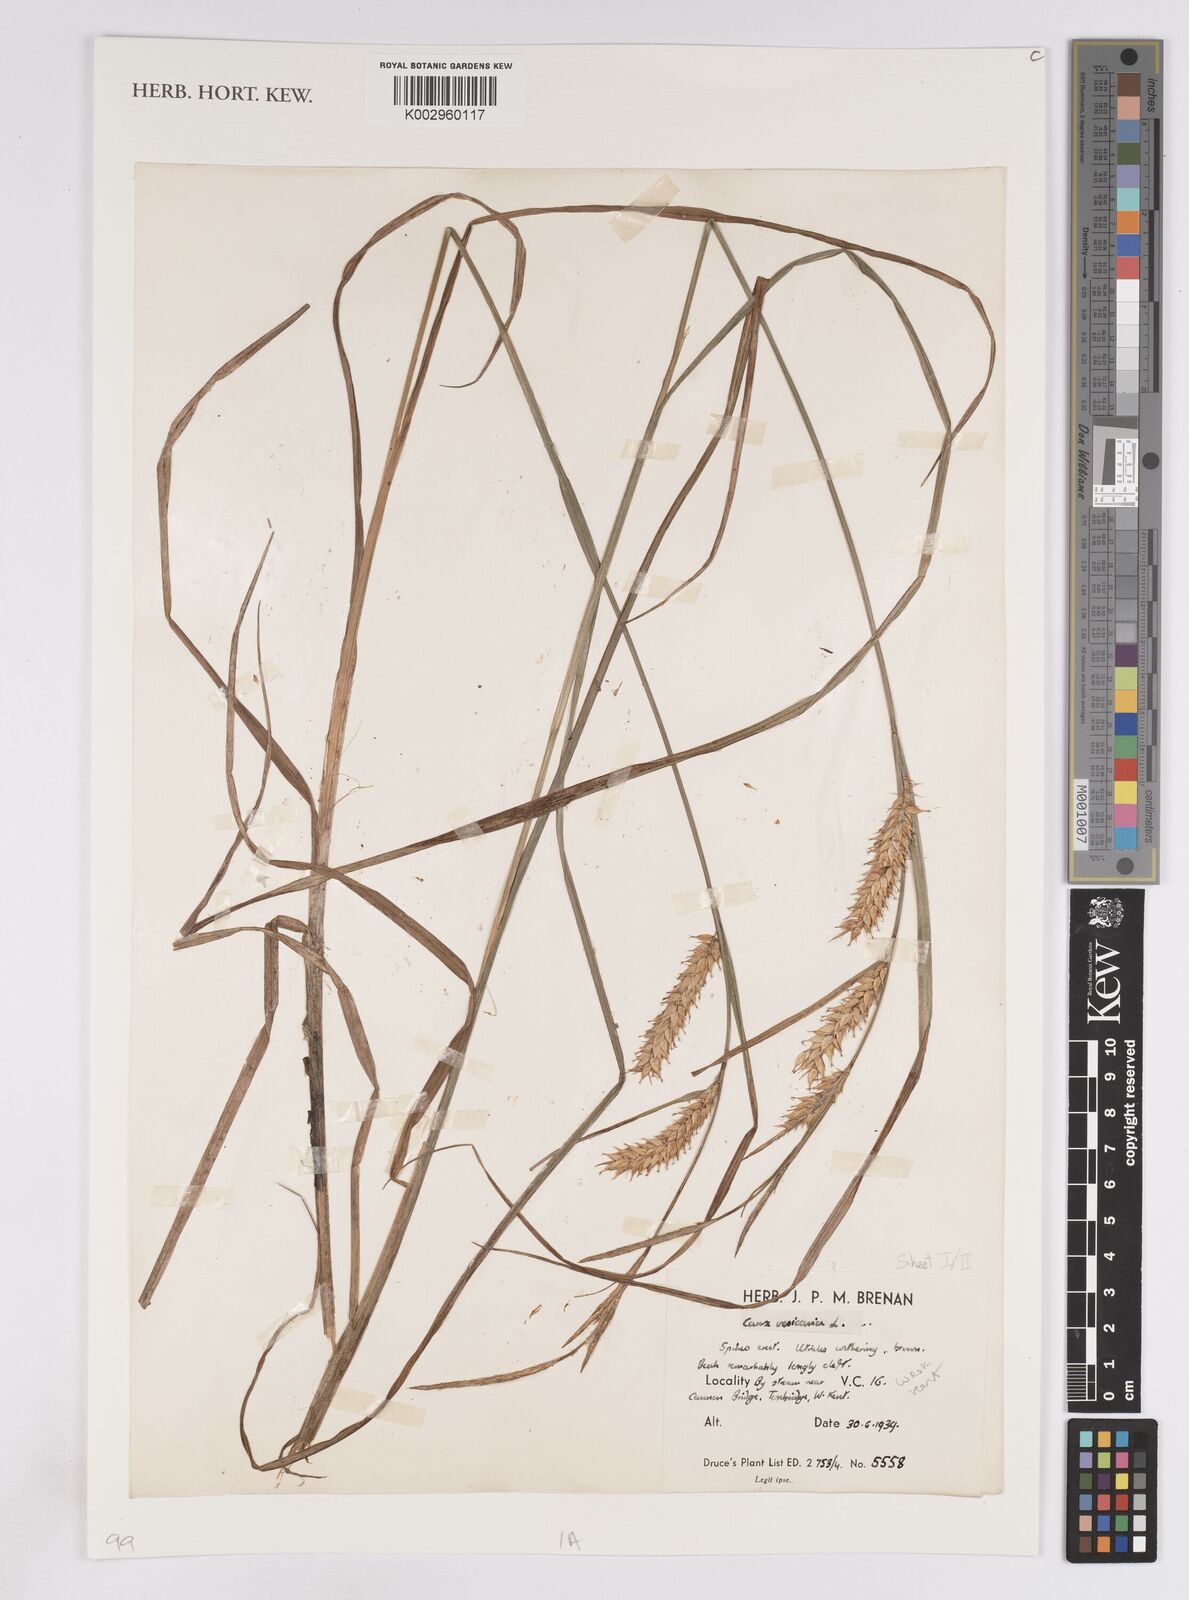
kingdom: Plantae
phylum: Tracheophyta
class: Liliopsida
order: Poales
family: Cyperaceae
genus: Carex
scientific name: Carex vesicaria
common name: Bladder-sedge
